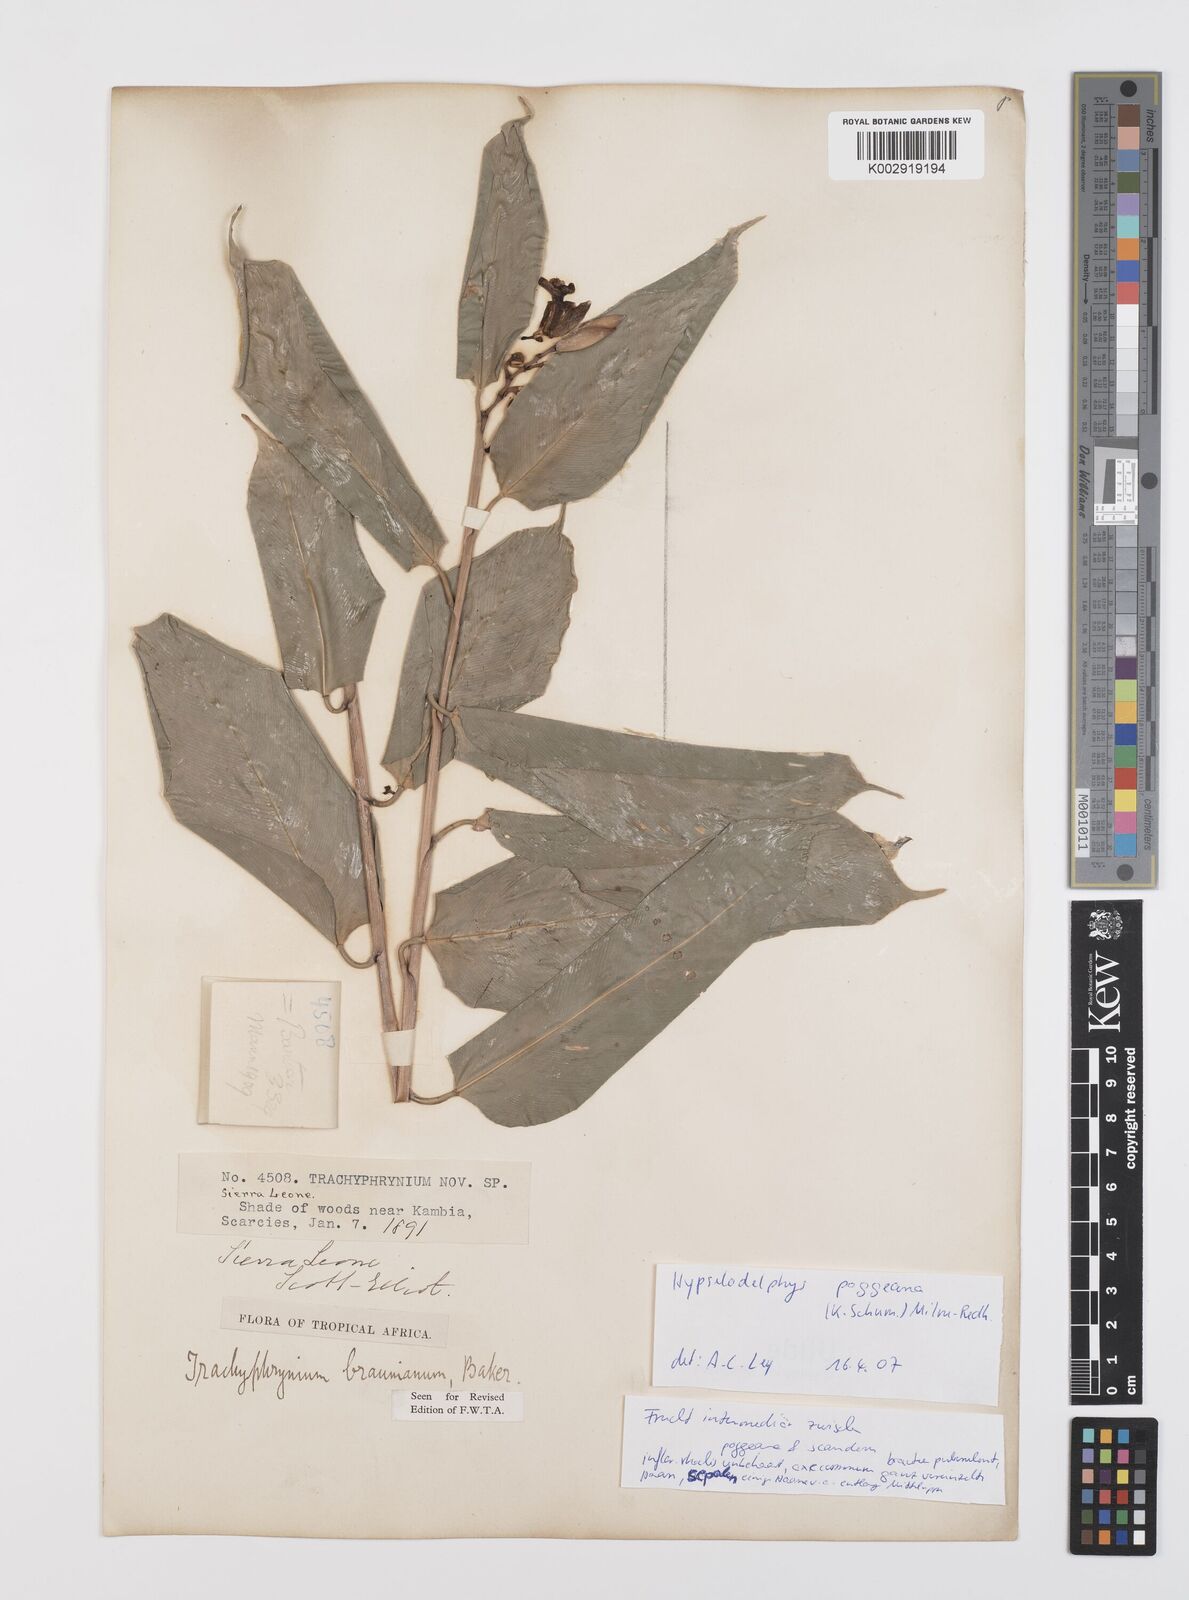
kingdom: Plantae
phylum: Tracheophyta
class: Liliopsida
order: Zingiberales
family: Marantaceae
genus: Hypselodelphys
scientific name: Hypselodelphys poggeana
